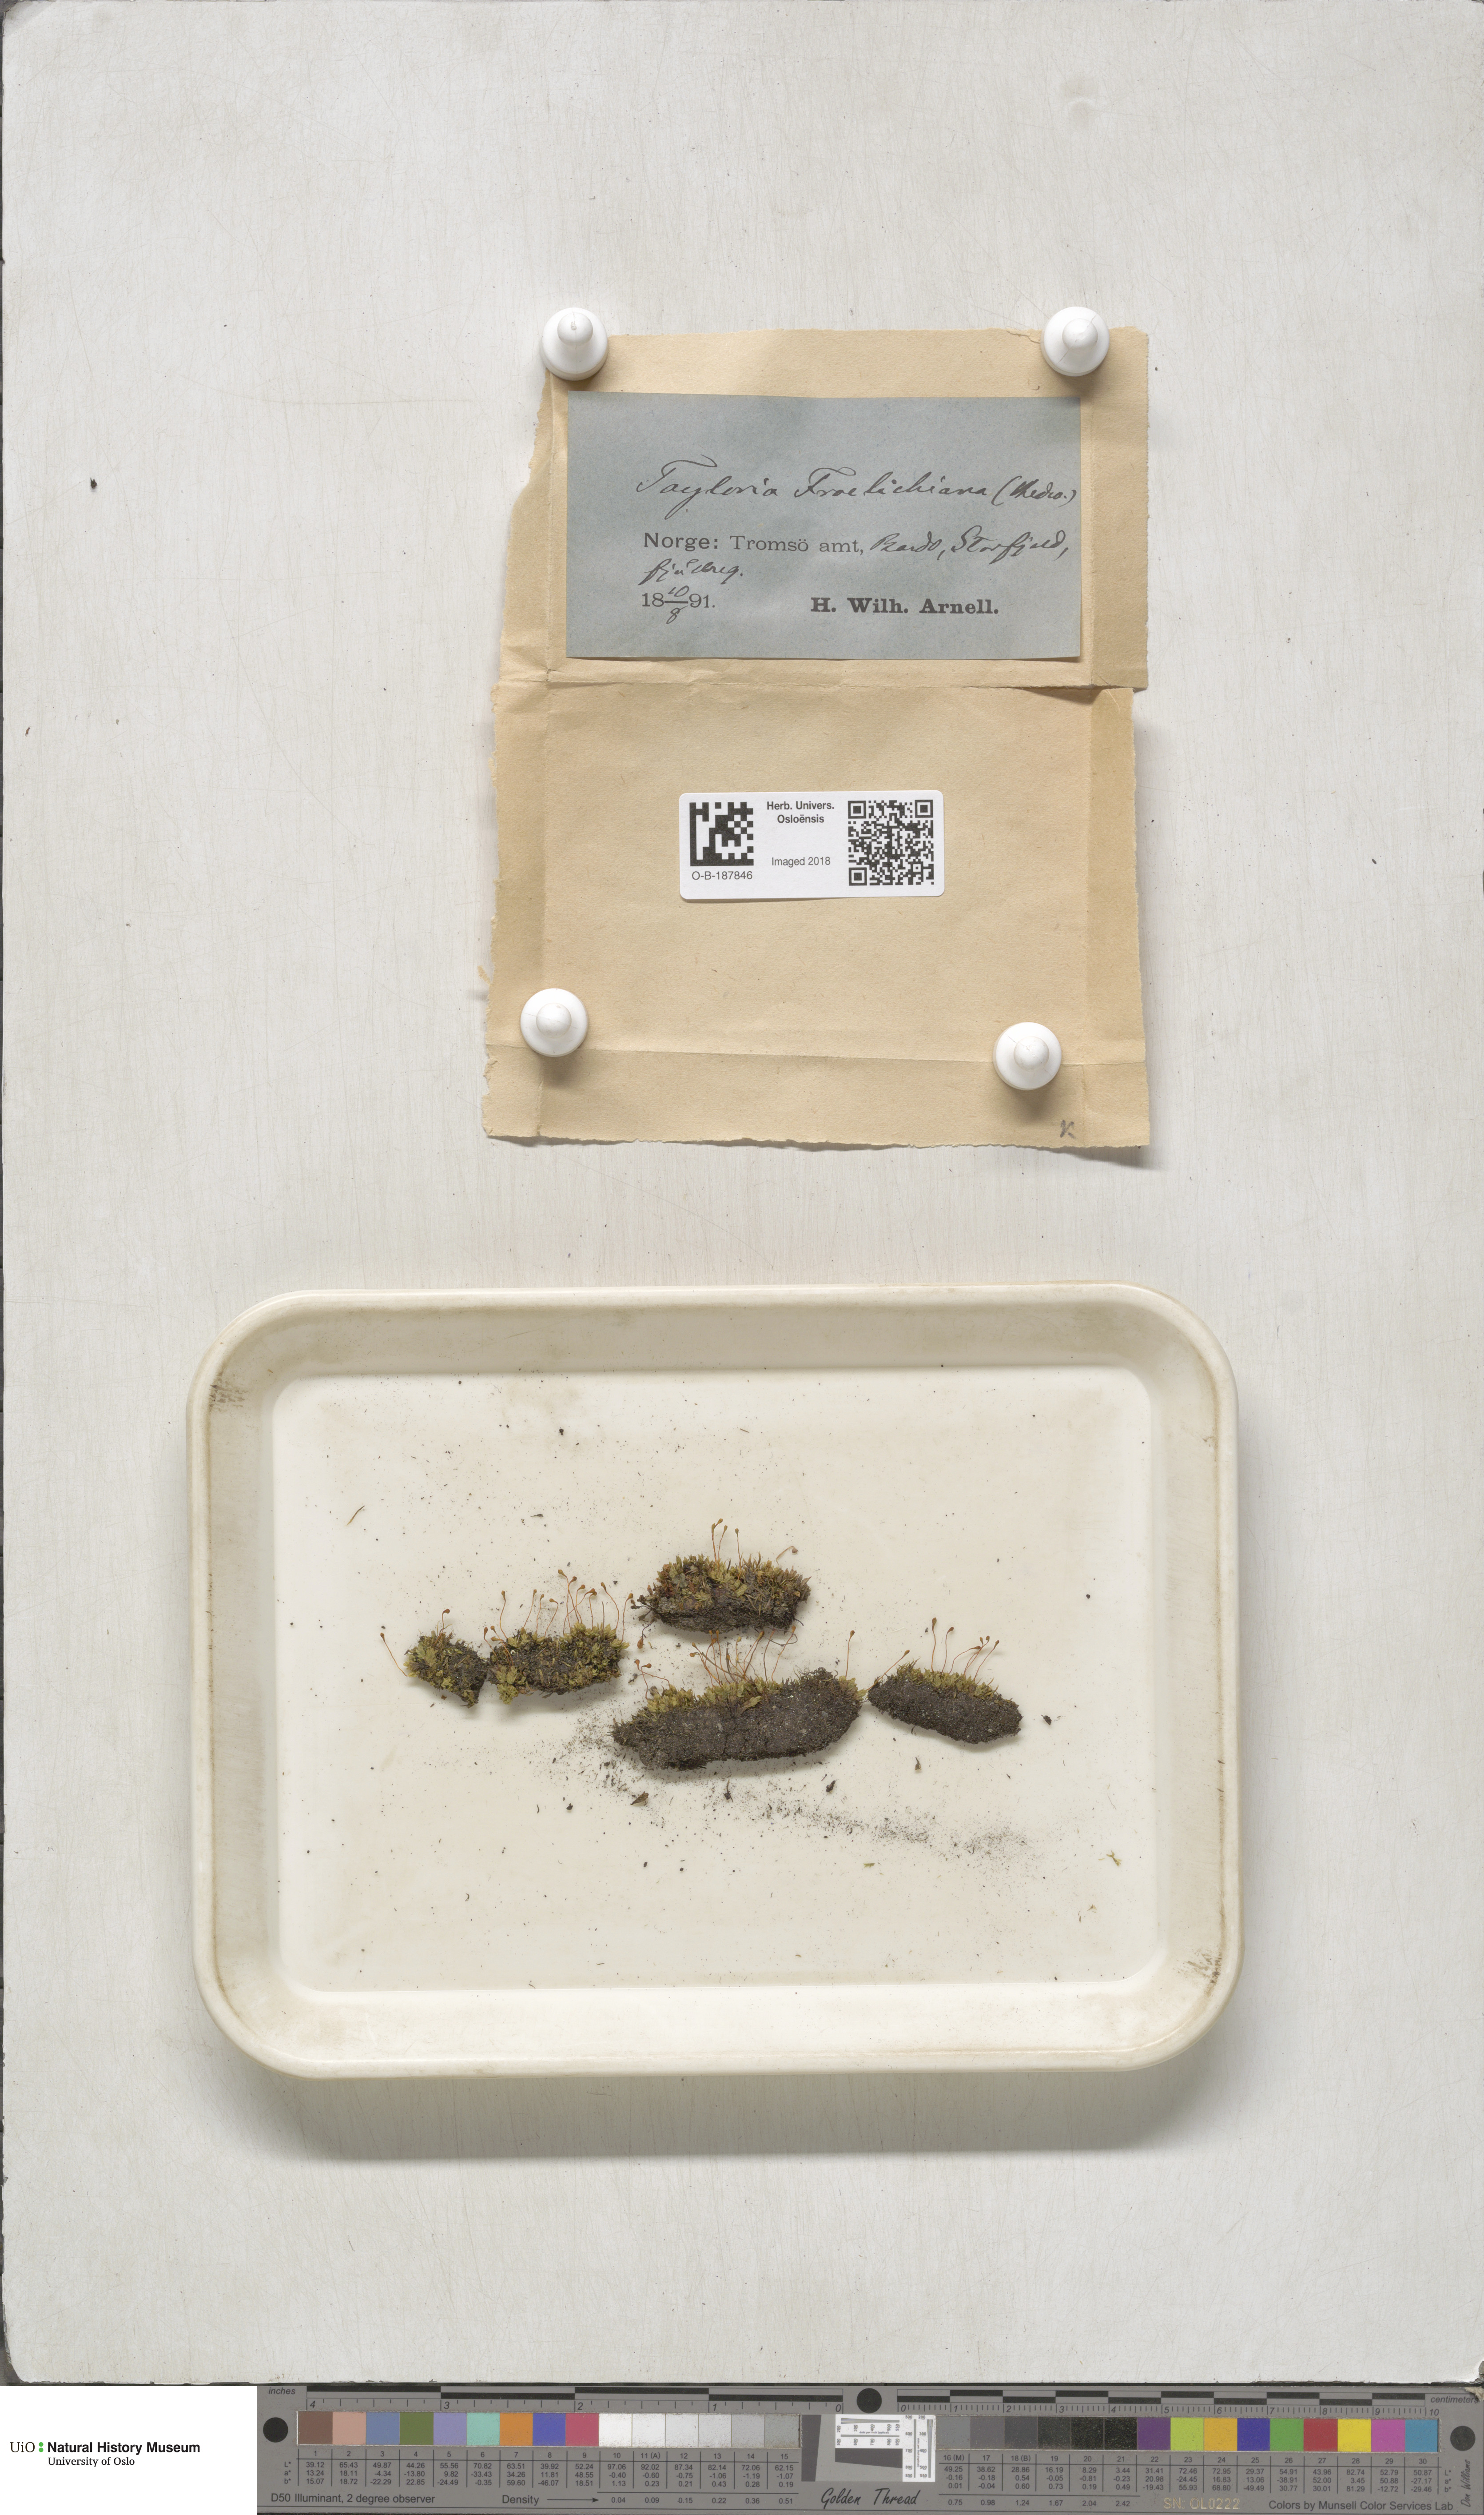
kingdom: Plantae
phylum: Bryophyta
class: Bryopsida
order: Splachnales
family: Splachnaceae
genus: Tayloria
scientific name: Tayloria froelichiana
